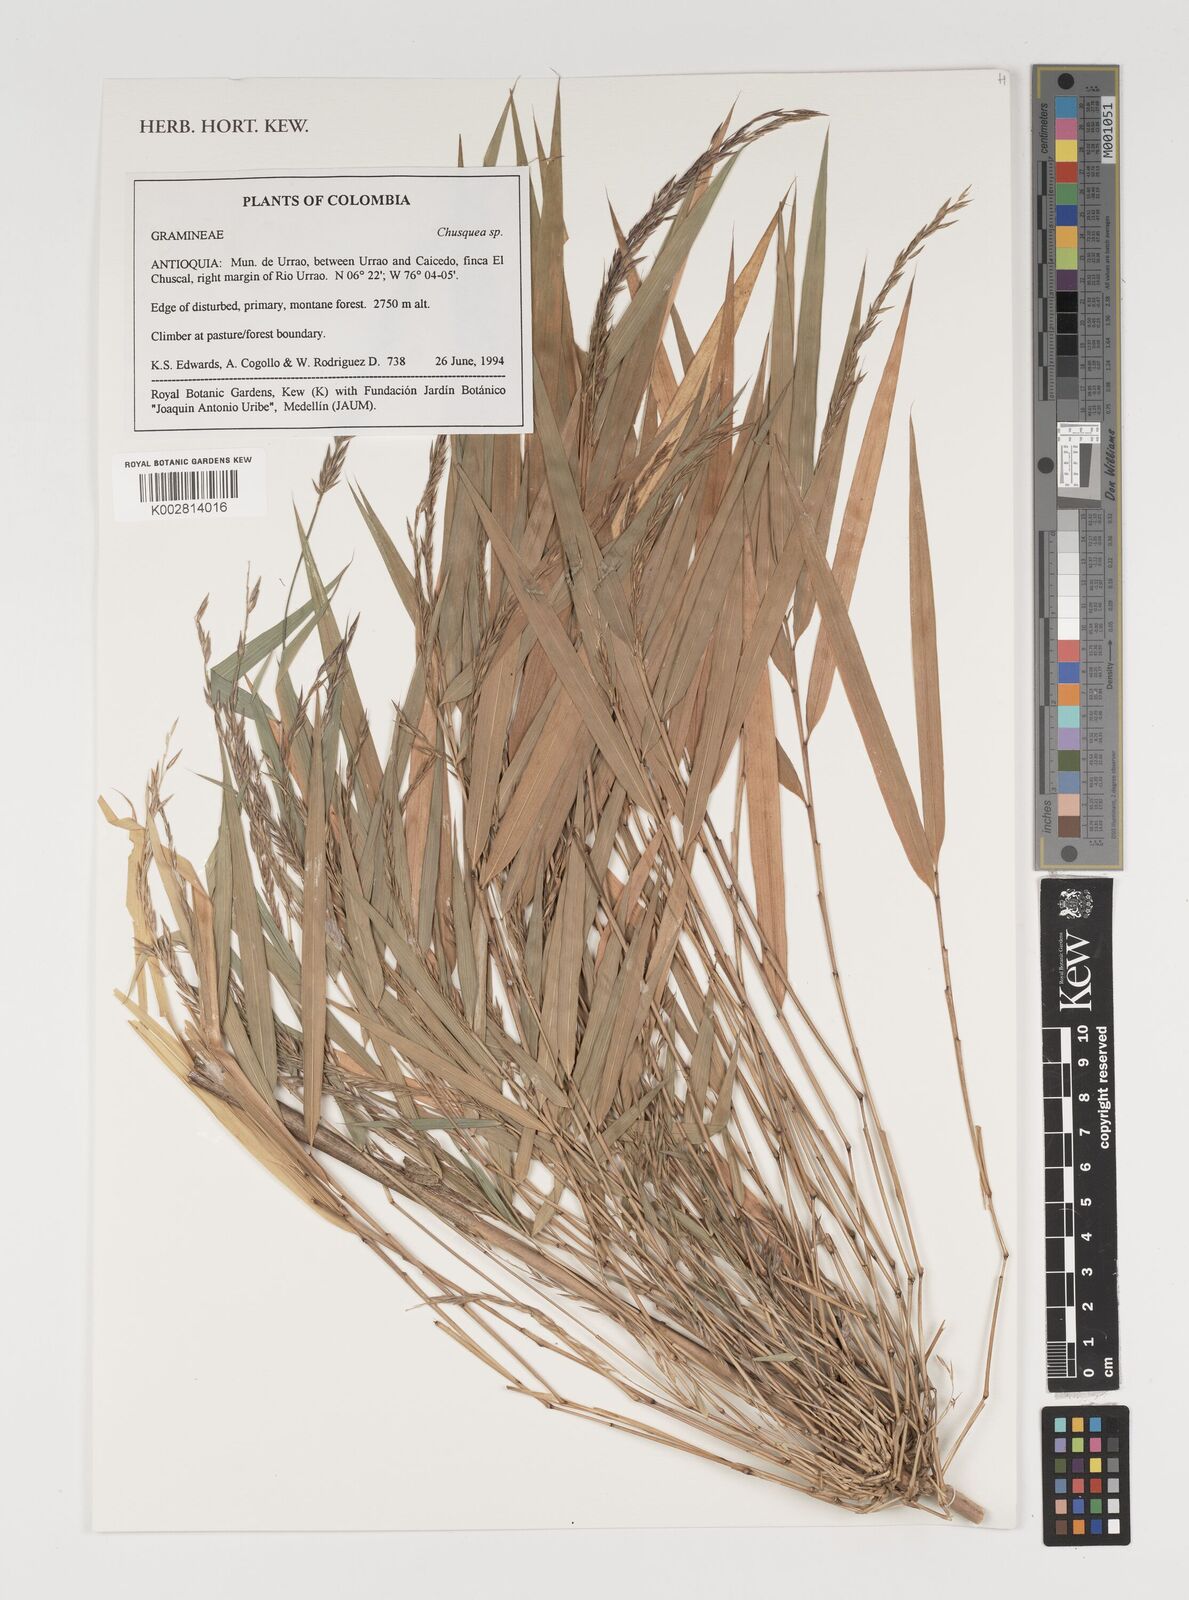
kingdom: Plantae
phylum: Tracheophyta
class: Liliopsida
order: Poales
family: Poaceae
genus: Chusquea
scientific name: Chusquea
